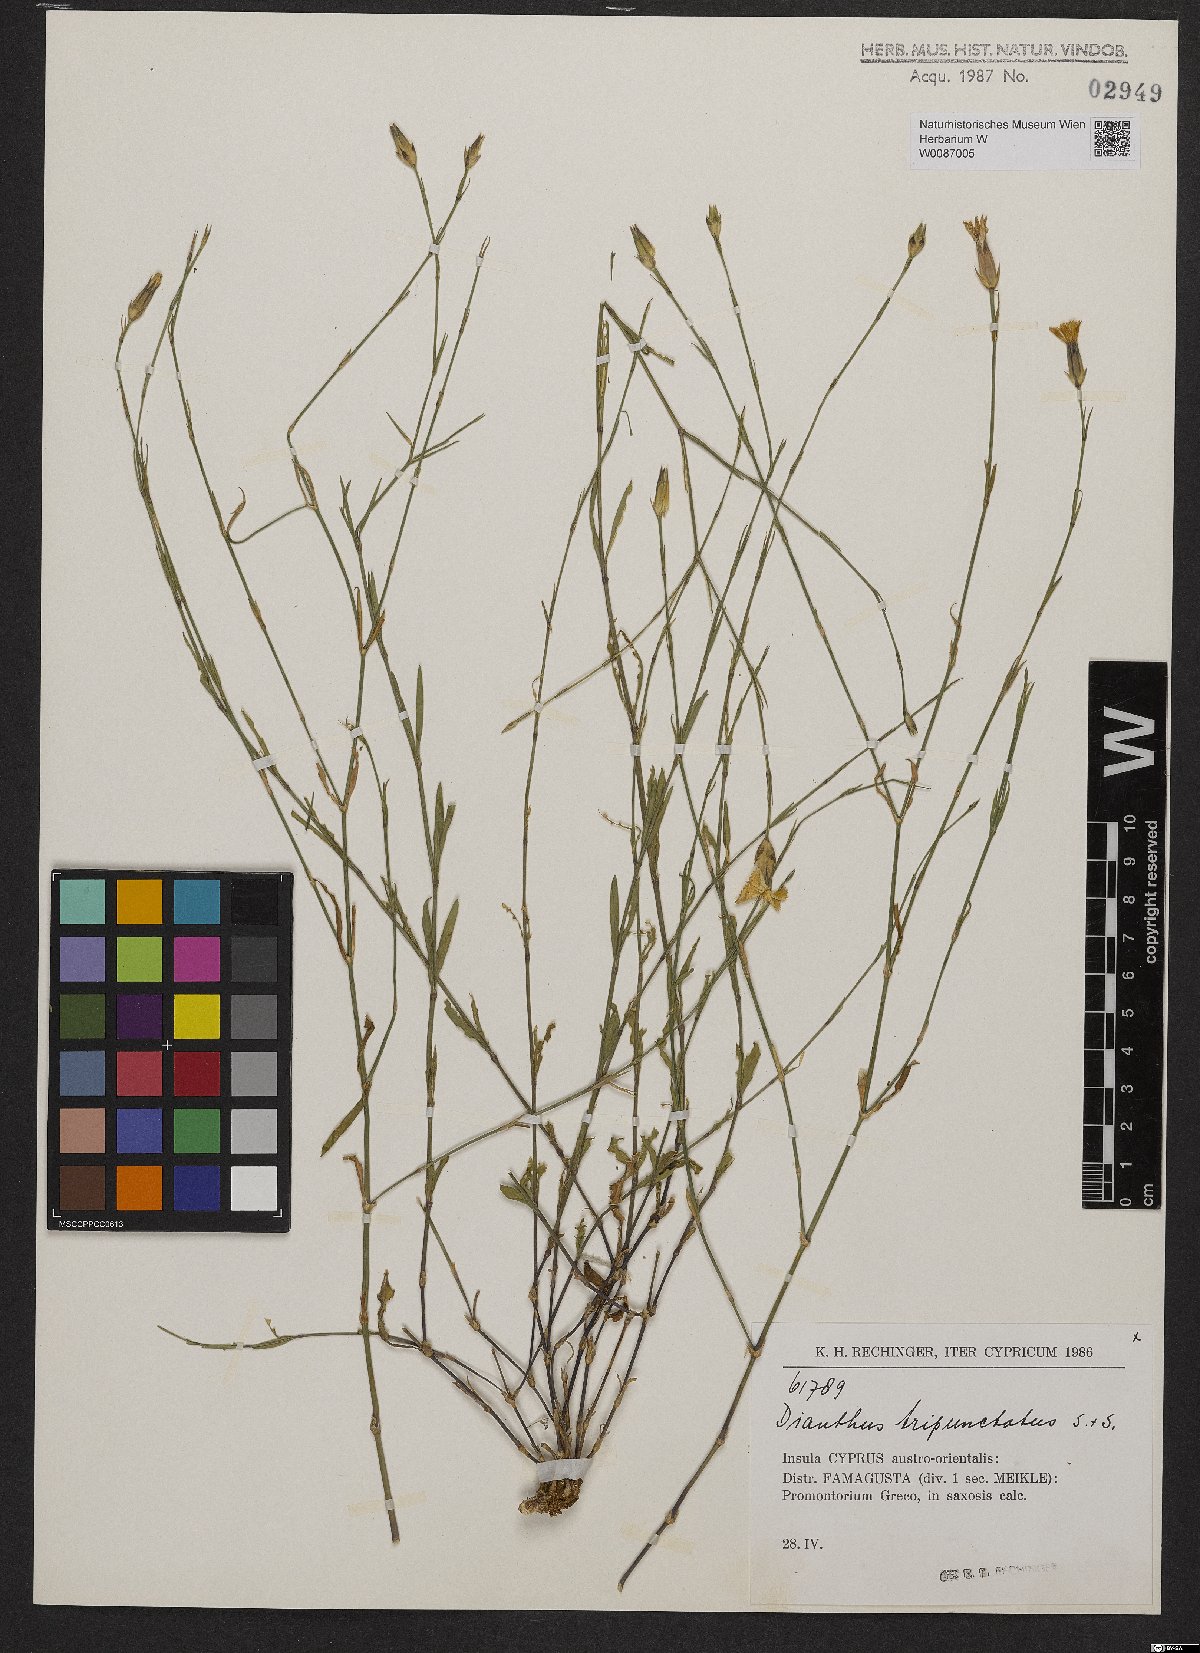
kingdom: Plantae
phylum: Tracheophyta
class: Magnoliopsida
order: Caryophyllales
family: Caryophyllaceae
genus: Dianthus
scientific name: Dianthus tripunctatus
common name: Three-spotted pink
